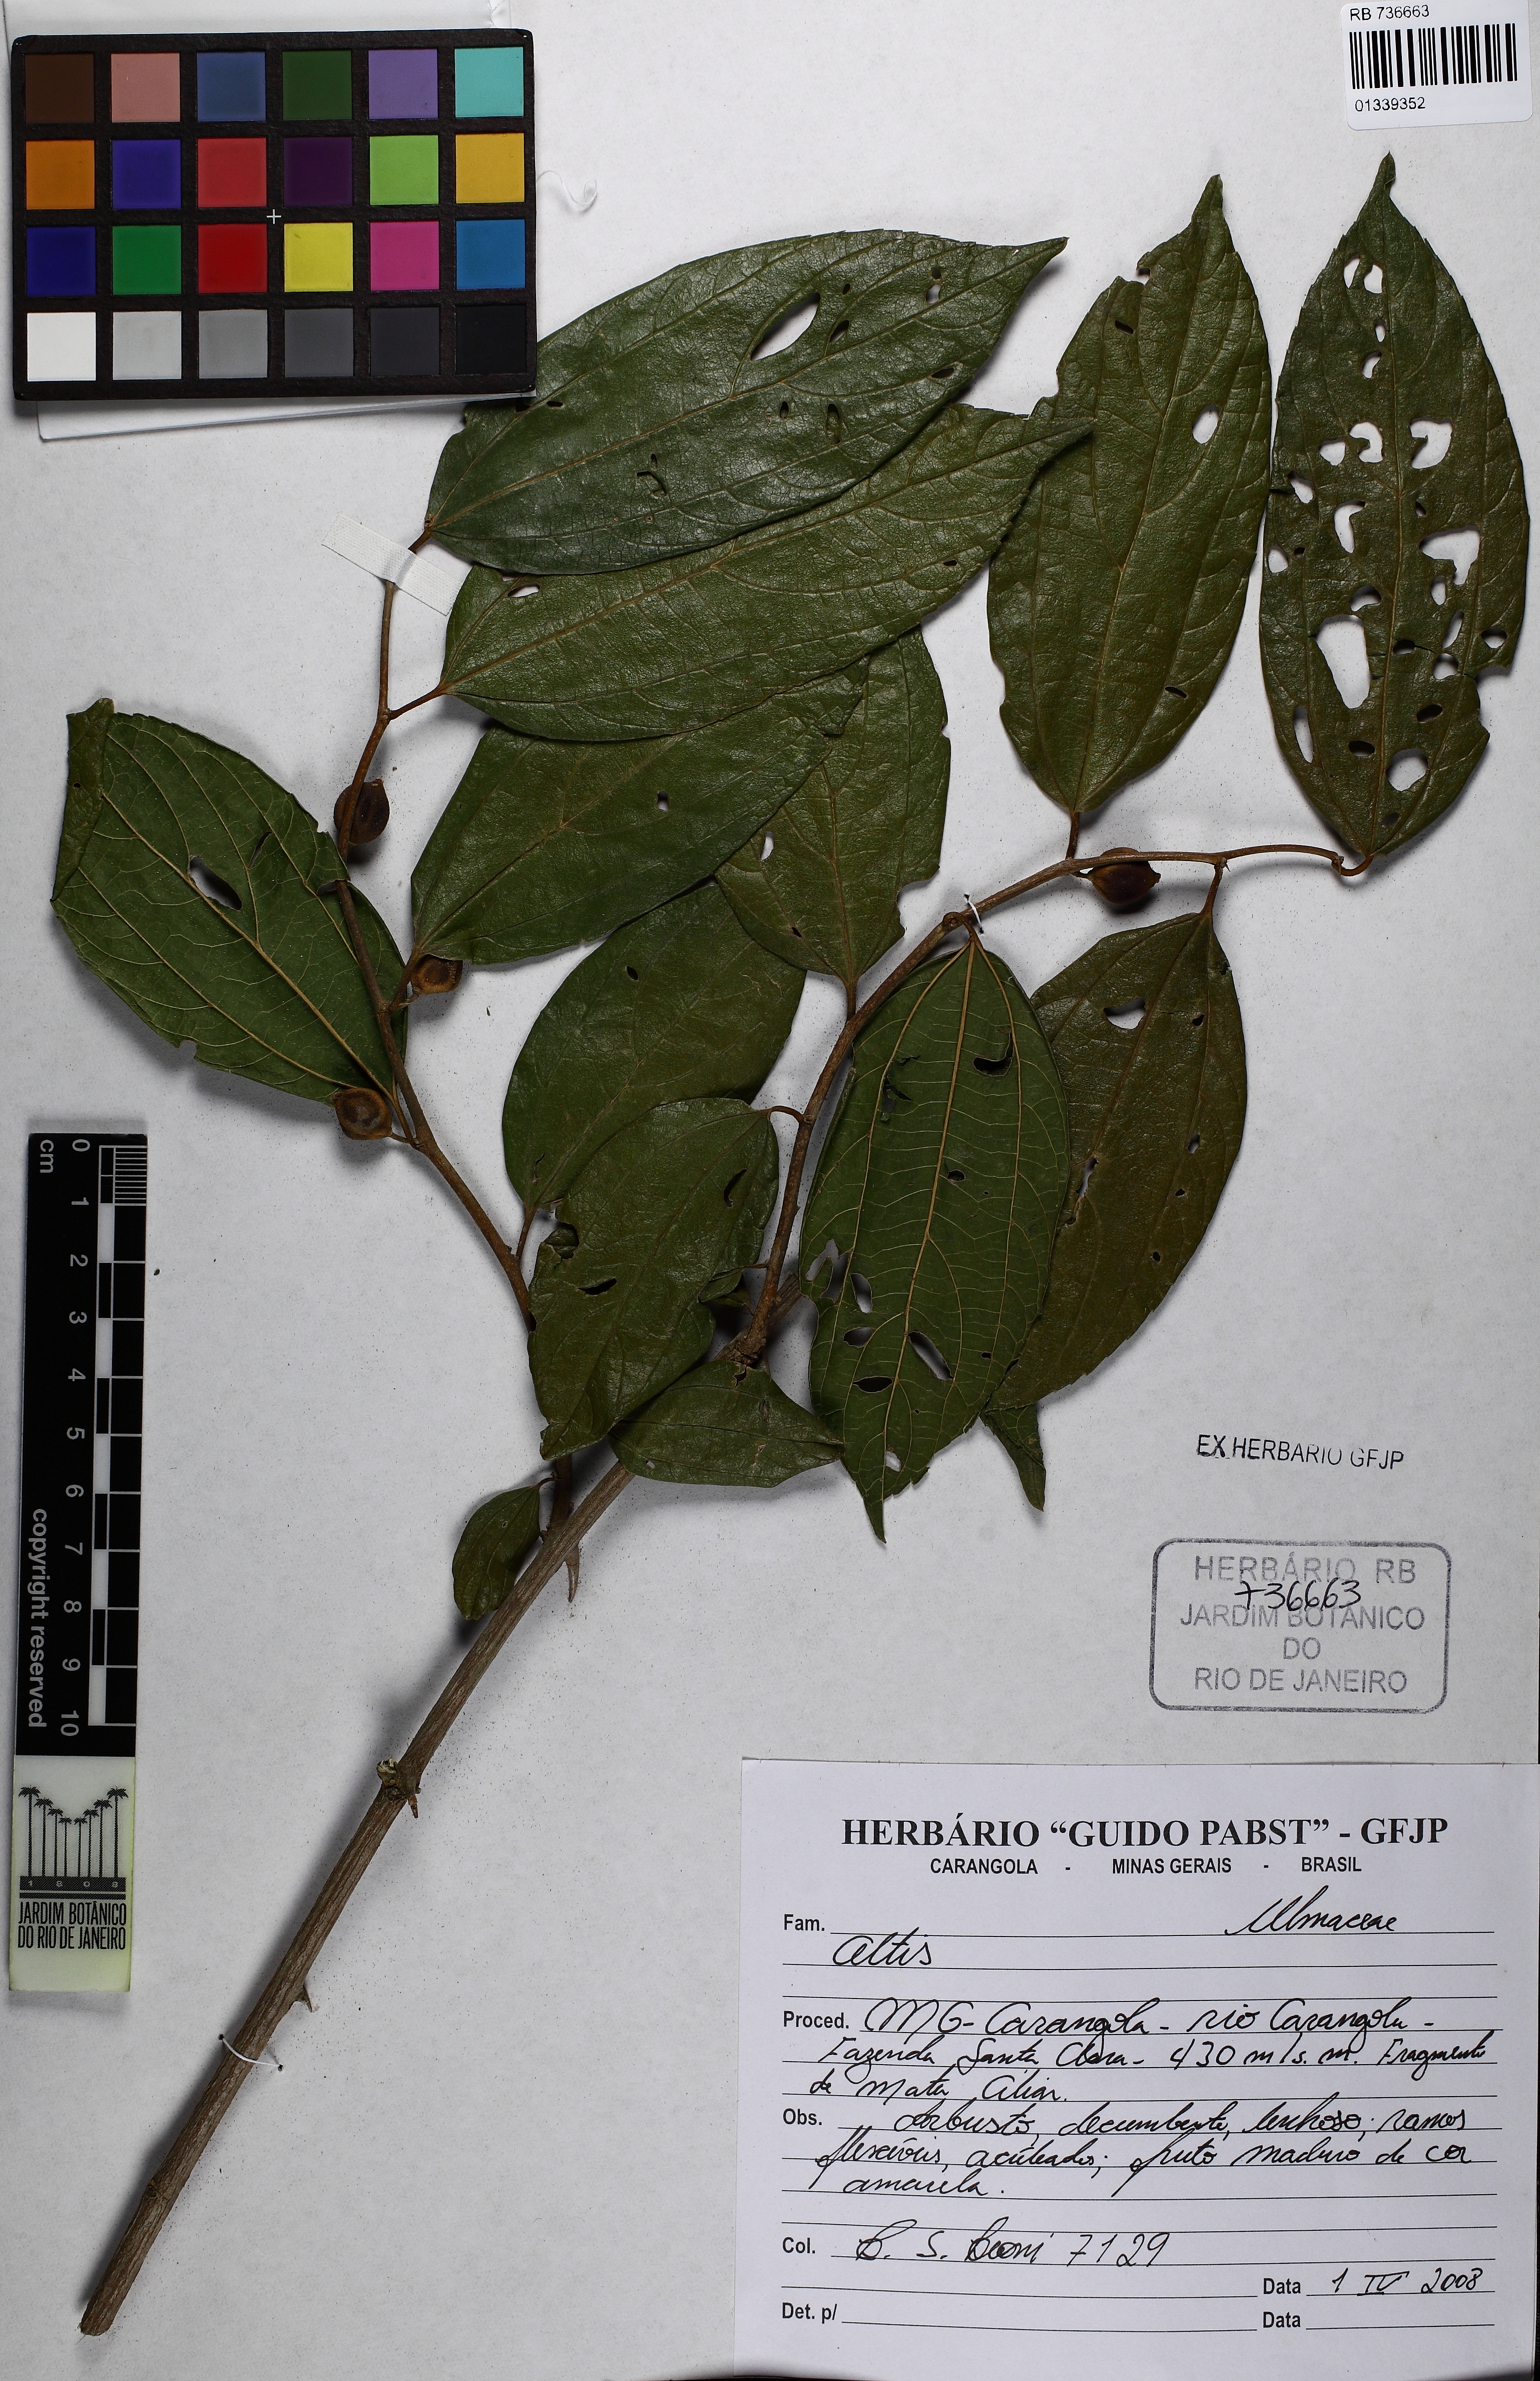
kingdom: Plantae
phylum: Tracheophyta
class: Magnoliopsida
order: Rosales
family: Cannabaceae
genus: Celtis
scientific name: Celtis iguanaea
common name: Iguana hackberry
